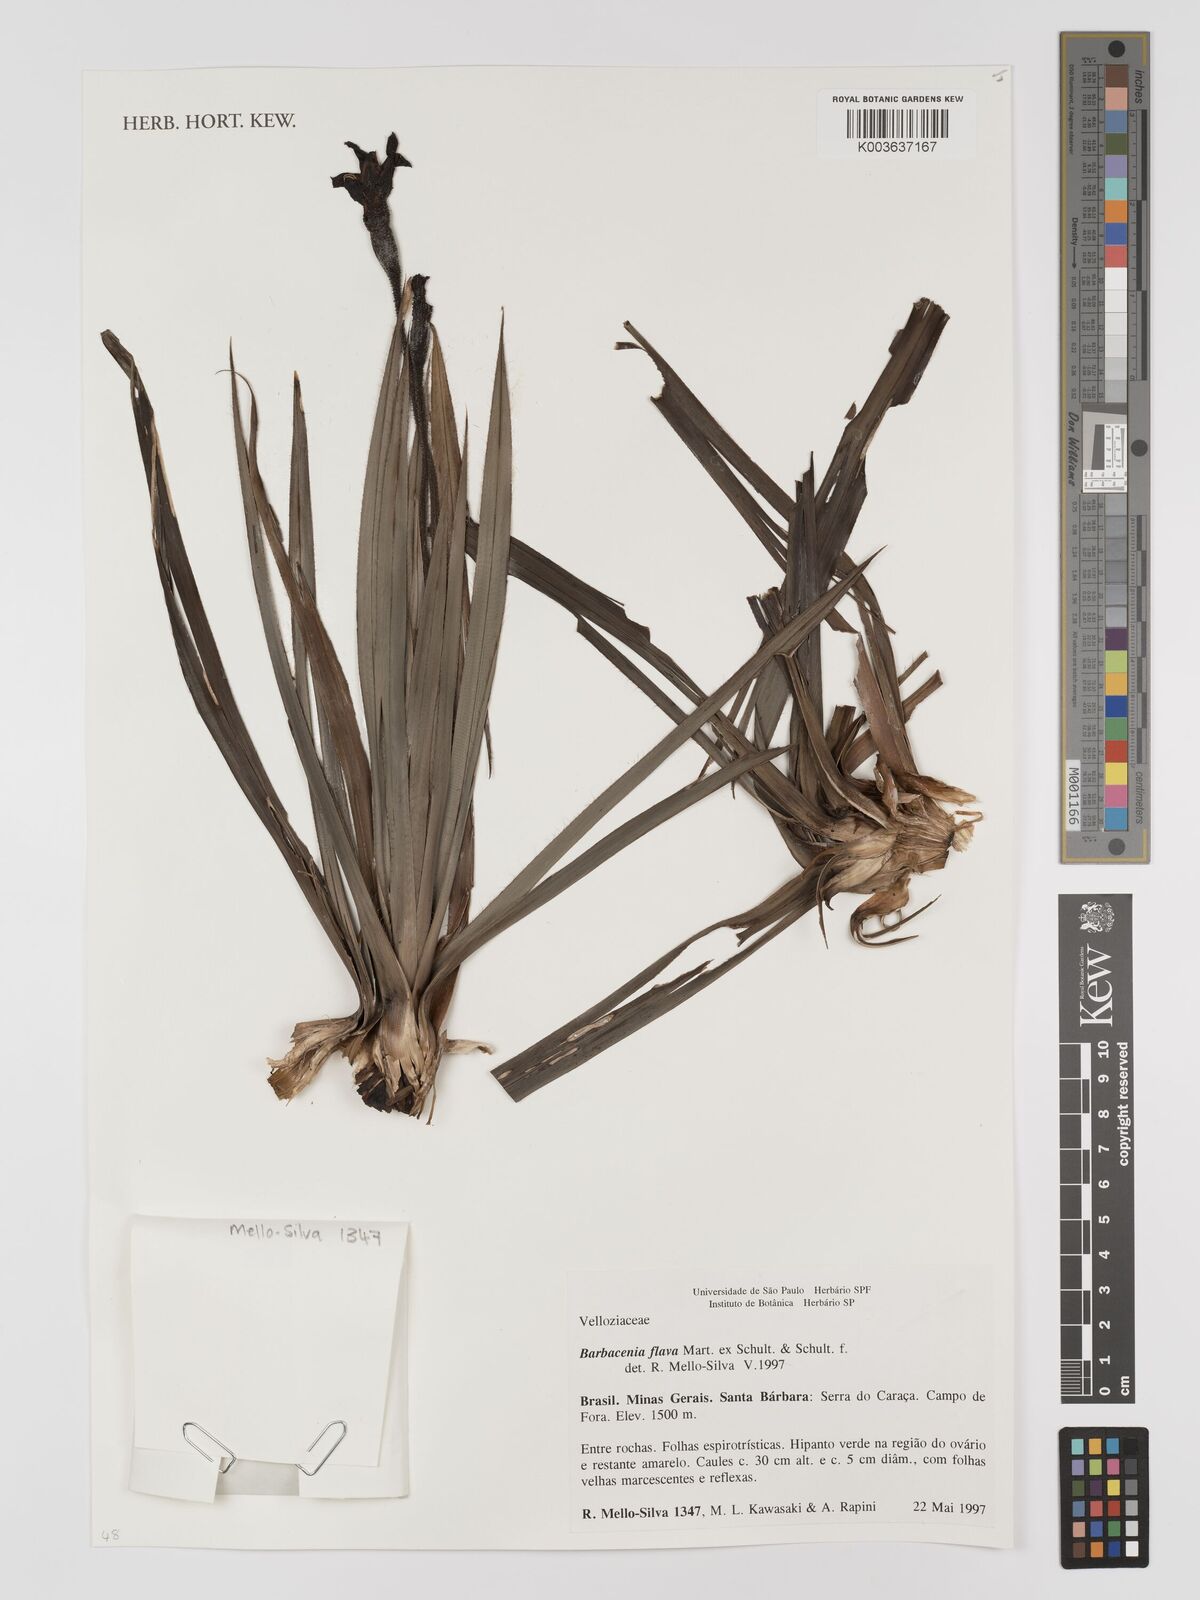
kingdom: Plantae
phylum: Tracheophyta
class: Liliopsida
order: Pandanales
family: Velloziaceae
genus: Barbacenia
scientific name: Barbacenia flava
